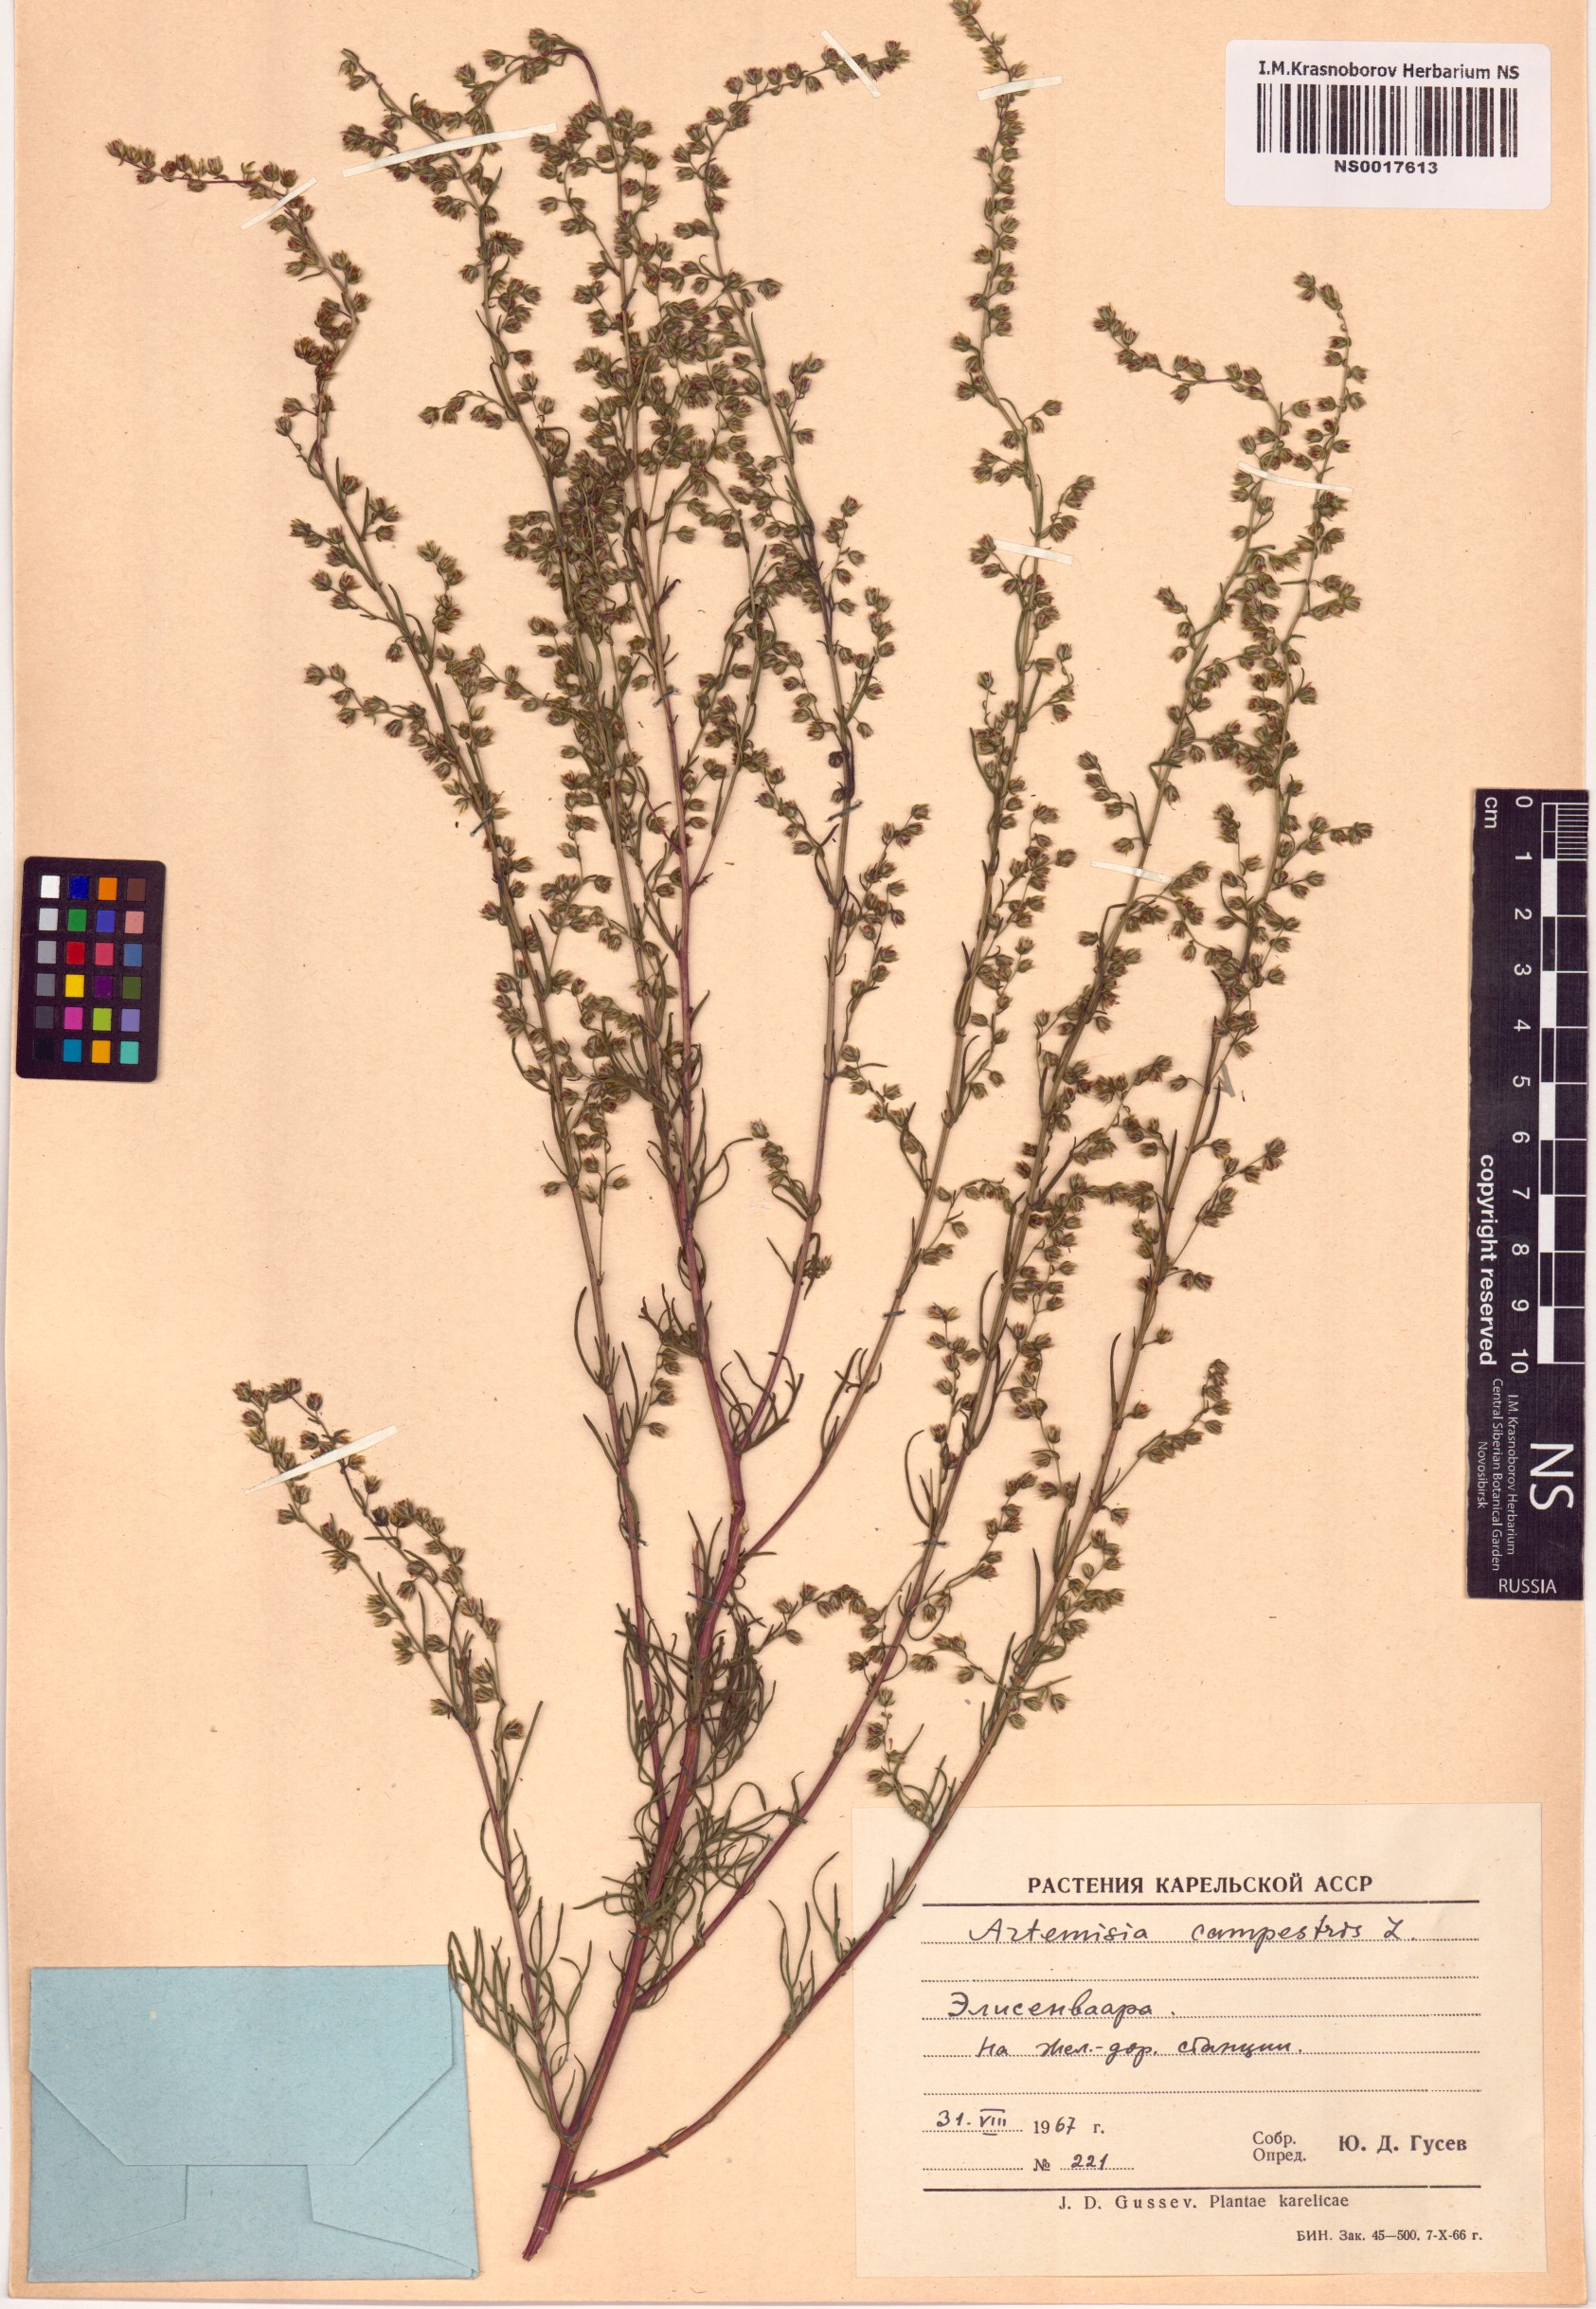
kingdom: Plantae
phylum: Tracheophyta
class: Magnoliopsida
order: Asterales
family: Asteraceae
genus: Artemisia
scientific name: Artemisia campestris
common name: Field wormwood
